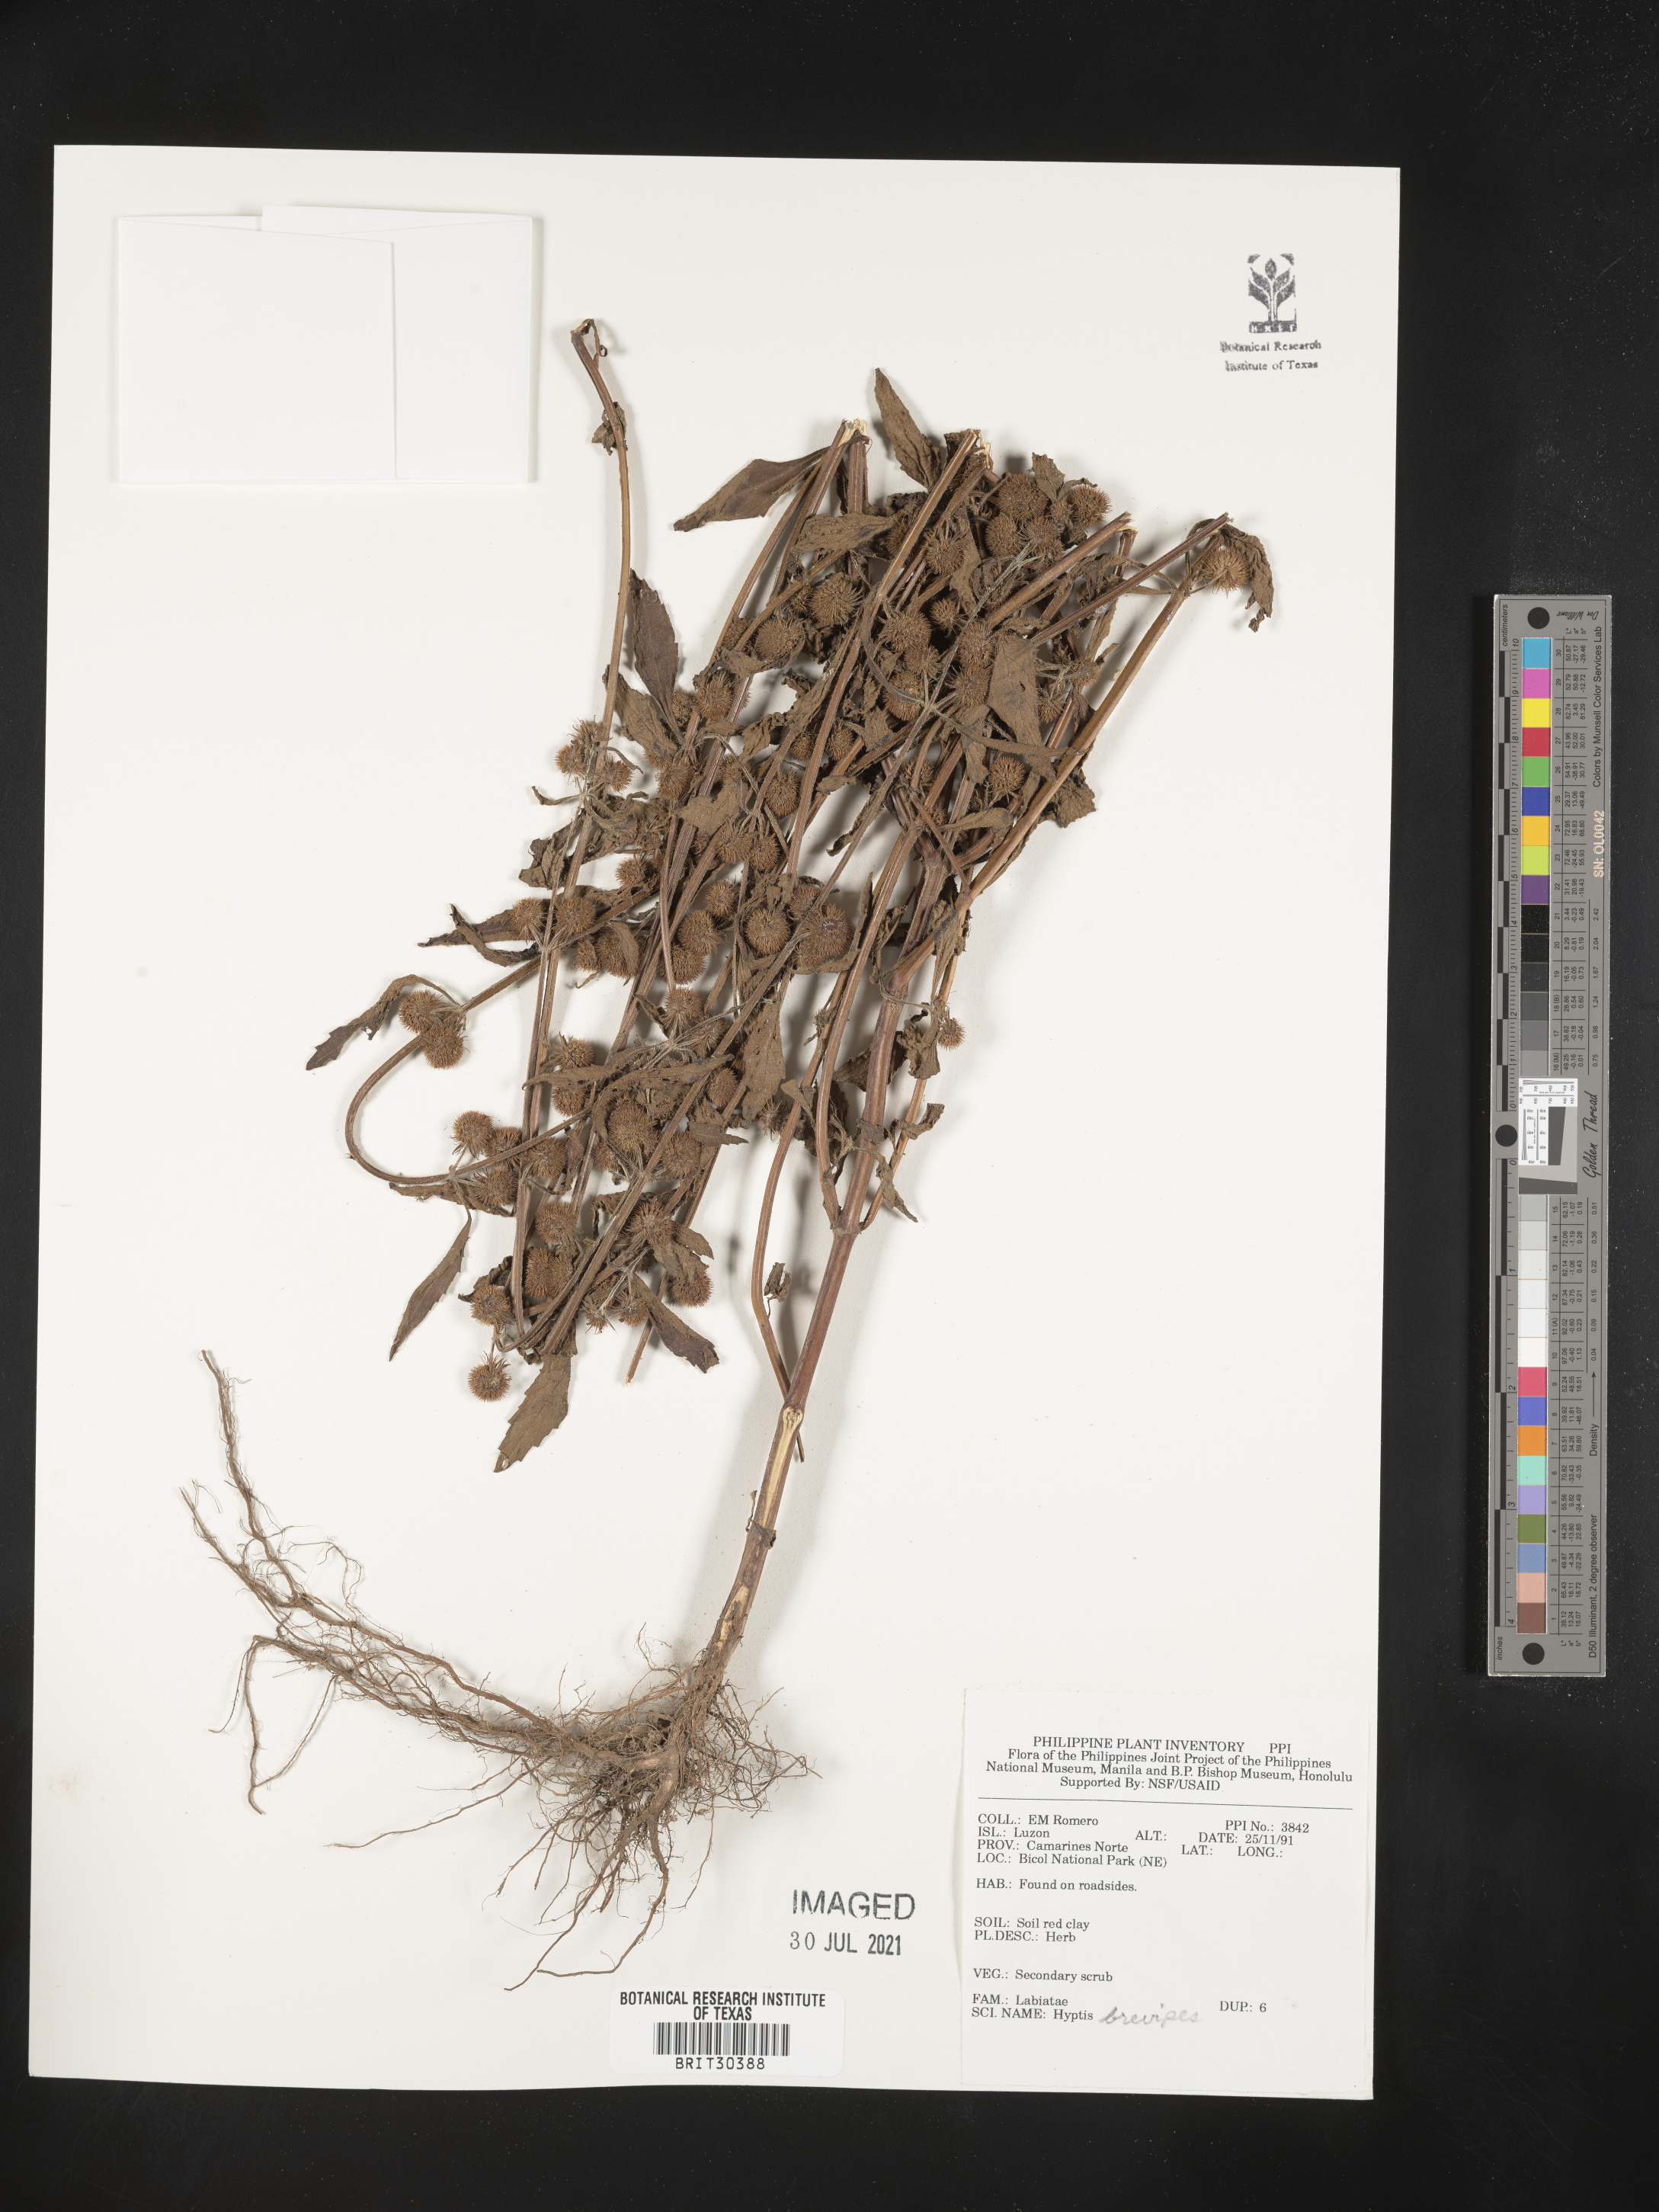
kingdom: Plantae
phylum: Tracheophyta
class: Magnoliopsida
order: Lamiales
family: Lamiaceae
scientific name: Lamiaceae
